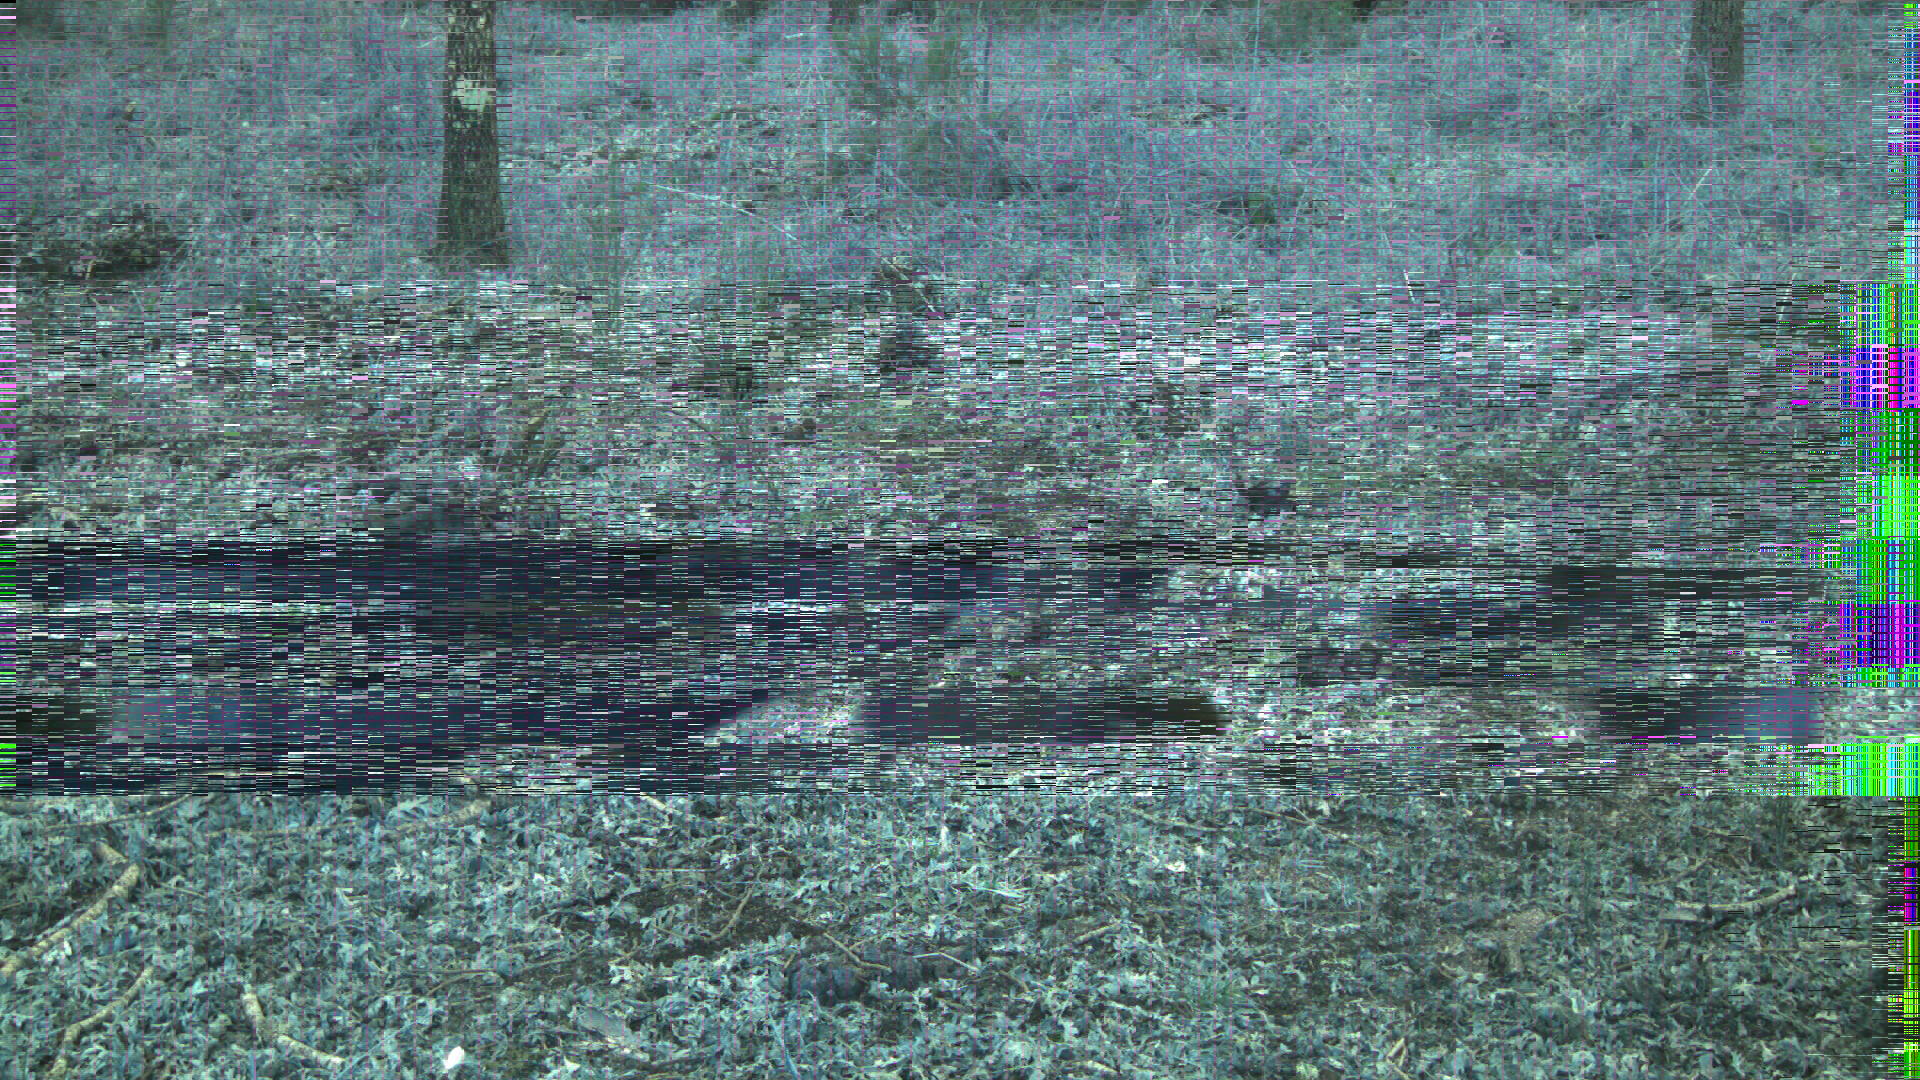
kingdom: Animalia
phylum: Chordata
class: Mammalia
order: Perissodactyla
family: Equidae
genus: Equus
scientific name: Equus caballus
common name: Horse
